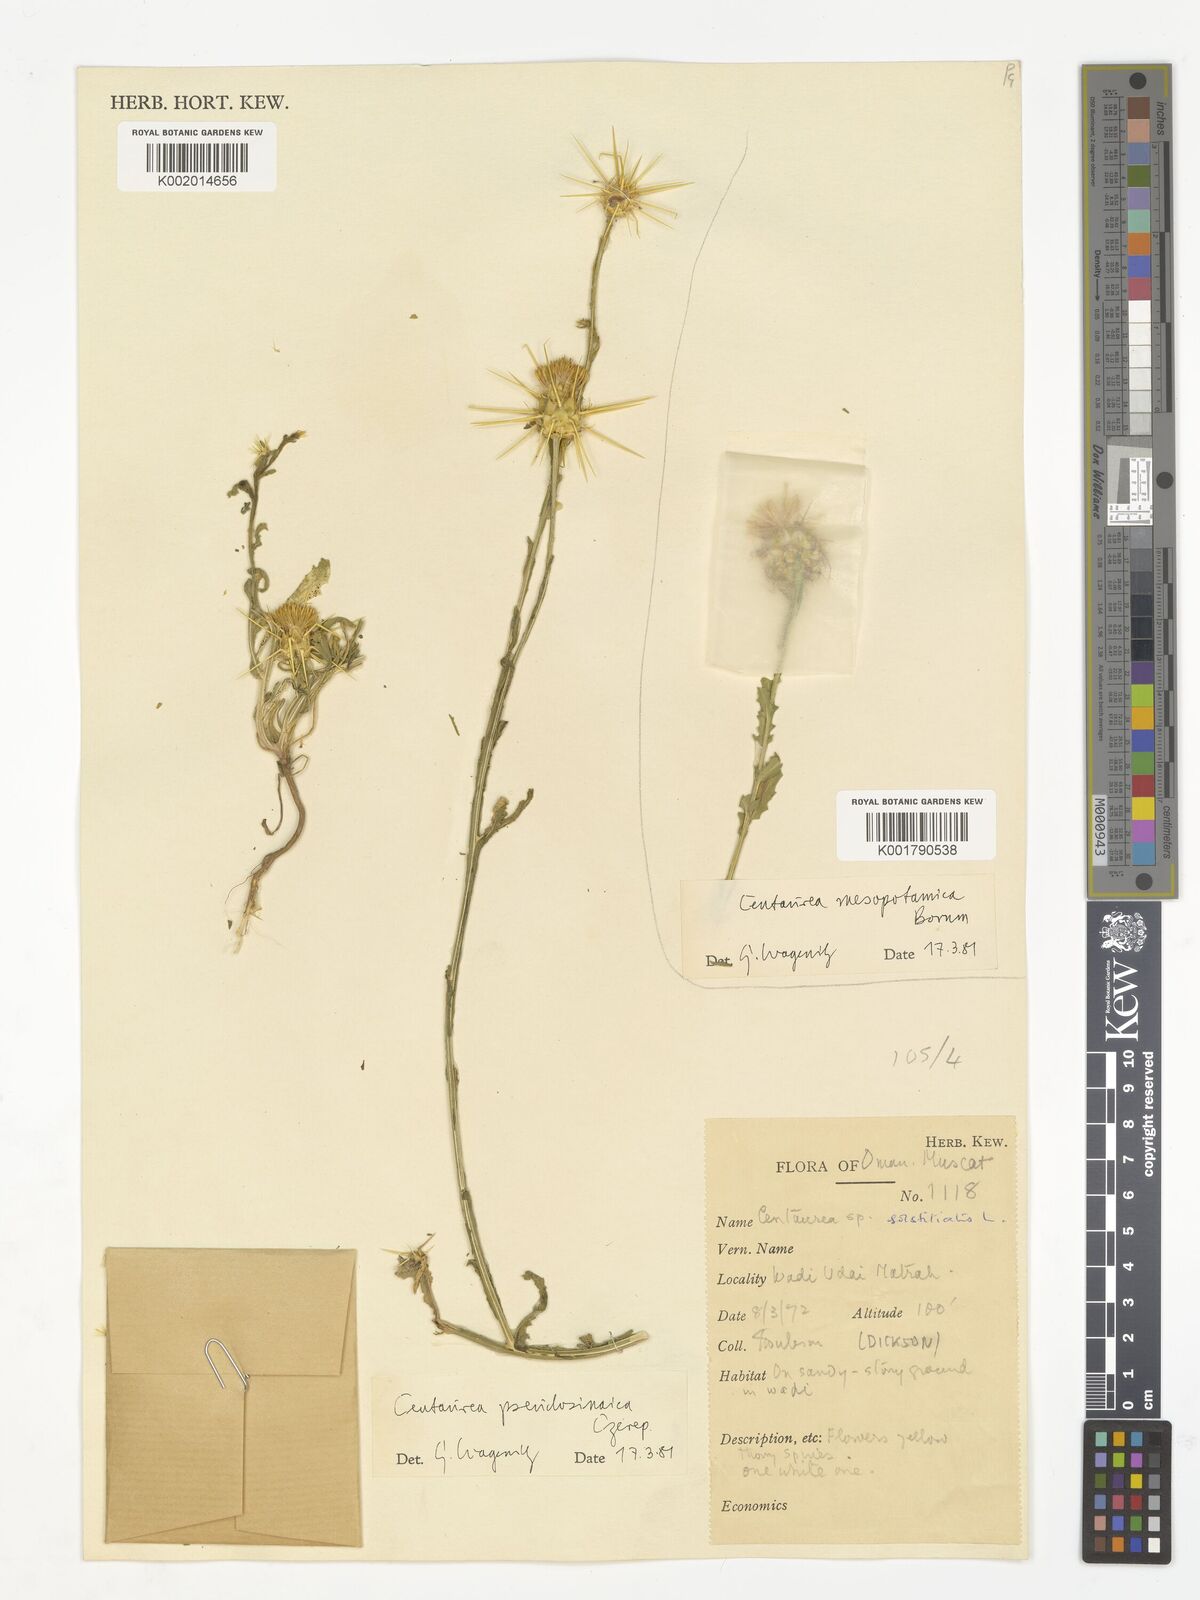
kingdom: Plantae
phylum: Tracheophyta
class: Magnoliopsida
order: Asterales
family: Asteraceae
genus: Centaurea
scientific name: Centaurea pseudosinaica
